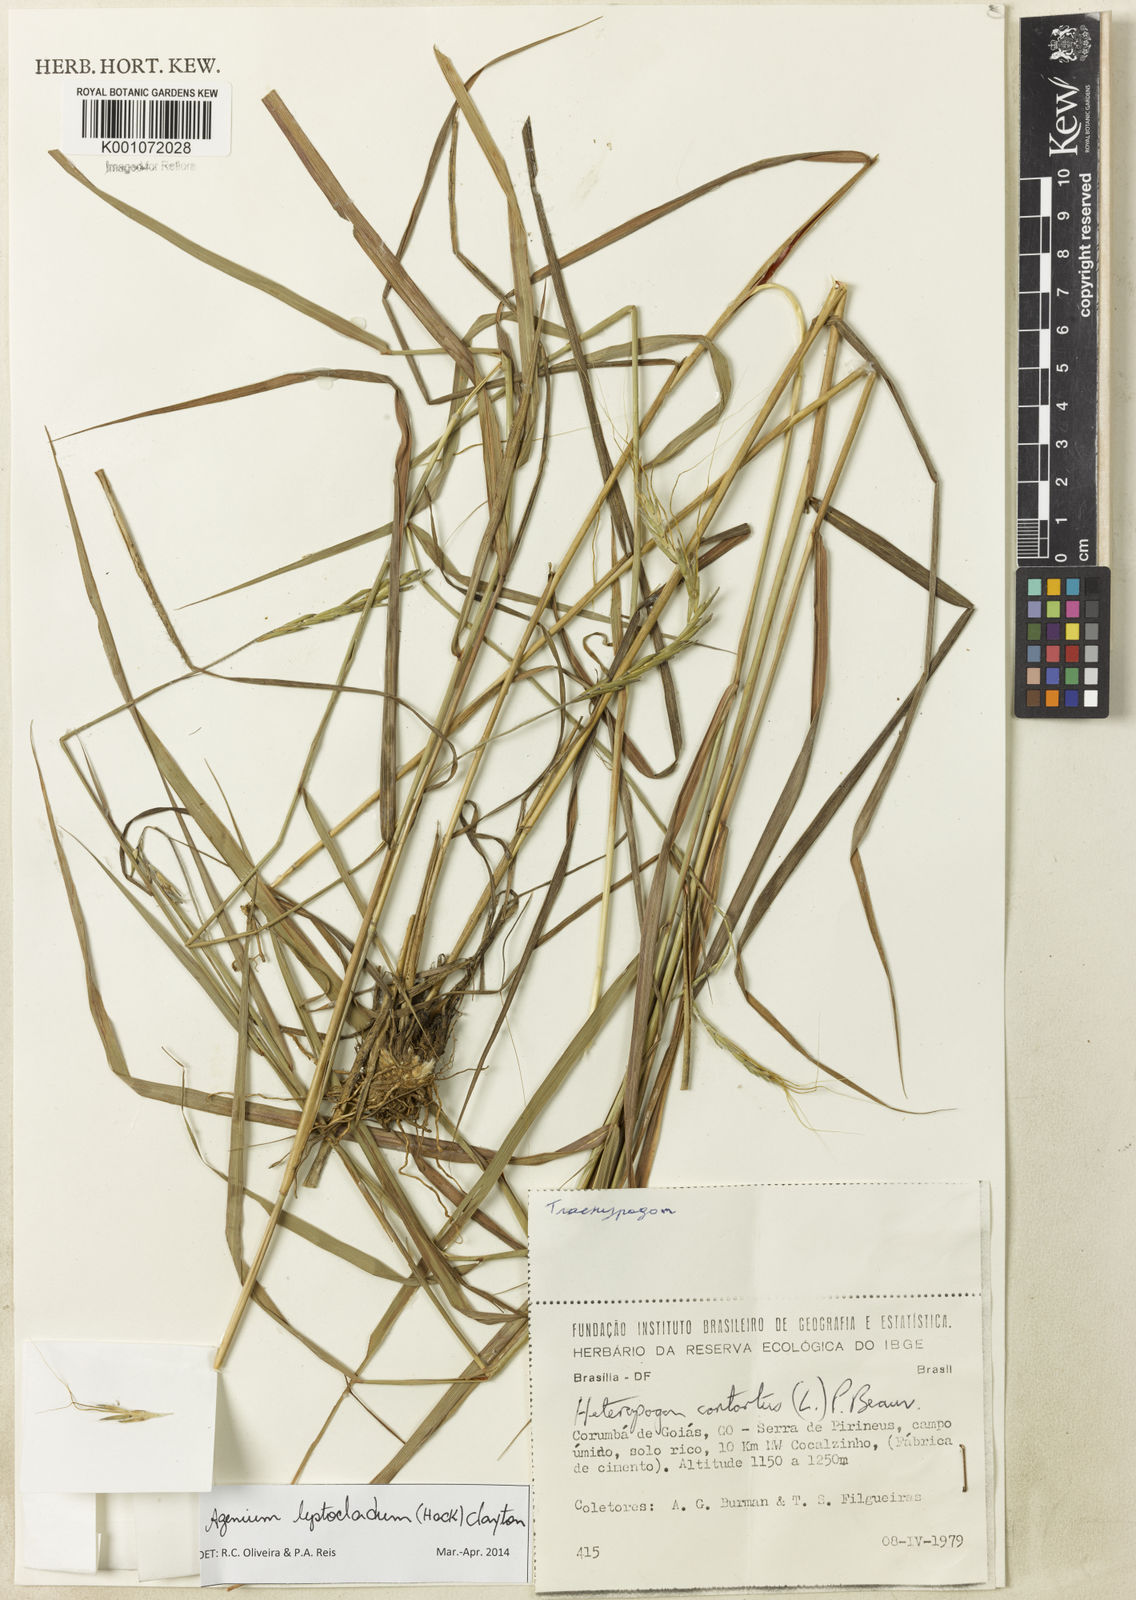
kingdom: Plantae
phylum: Tracheophyta
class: Liliopsida
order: Poales
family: Poaceae
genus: Agenium
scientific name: Agenium leptocladum
